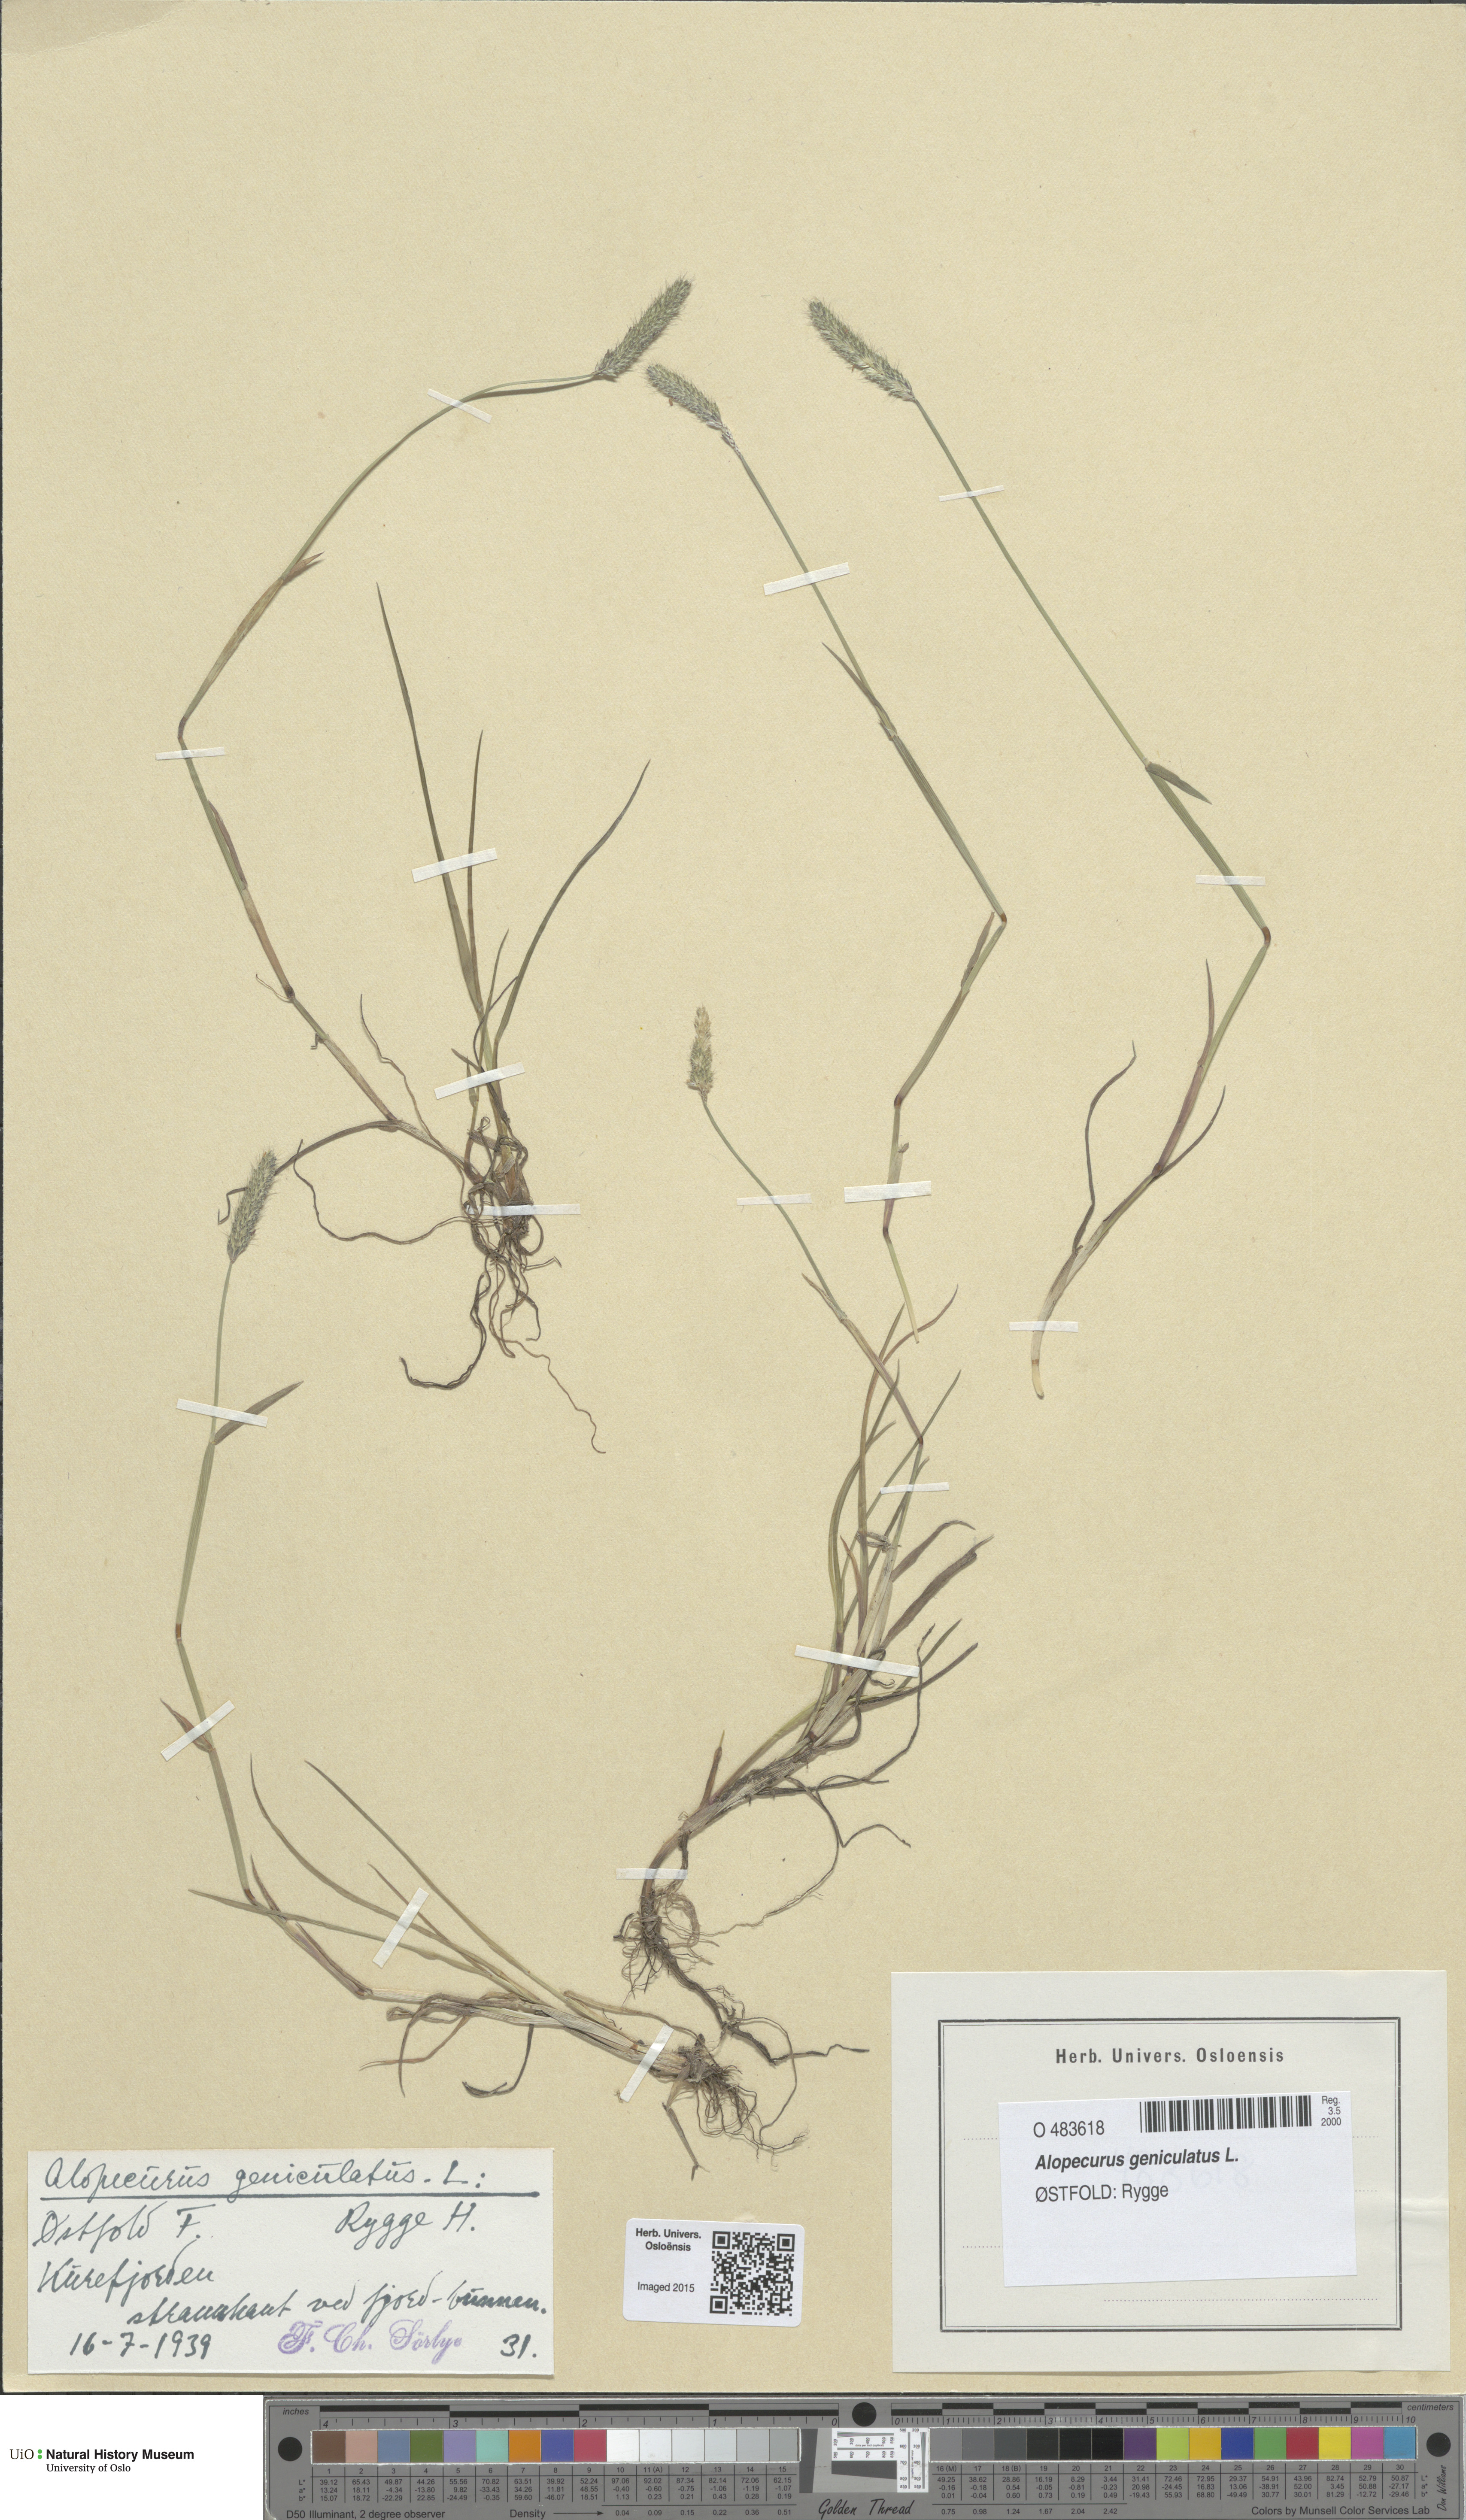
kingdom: Plantae
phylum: Tracheophyta
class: Liliopsida
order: Poales
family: Poaceae
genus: Alopecurus
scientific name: Alopecurus geniculatus
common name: Water foxtail
